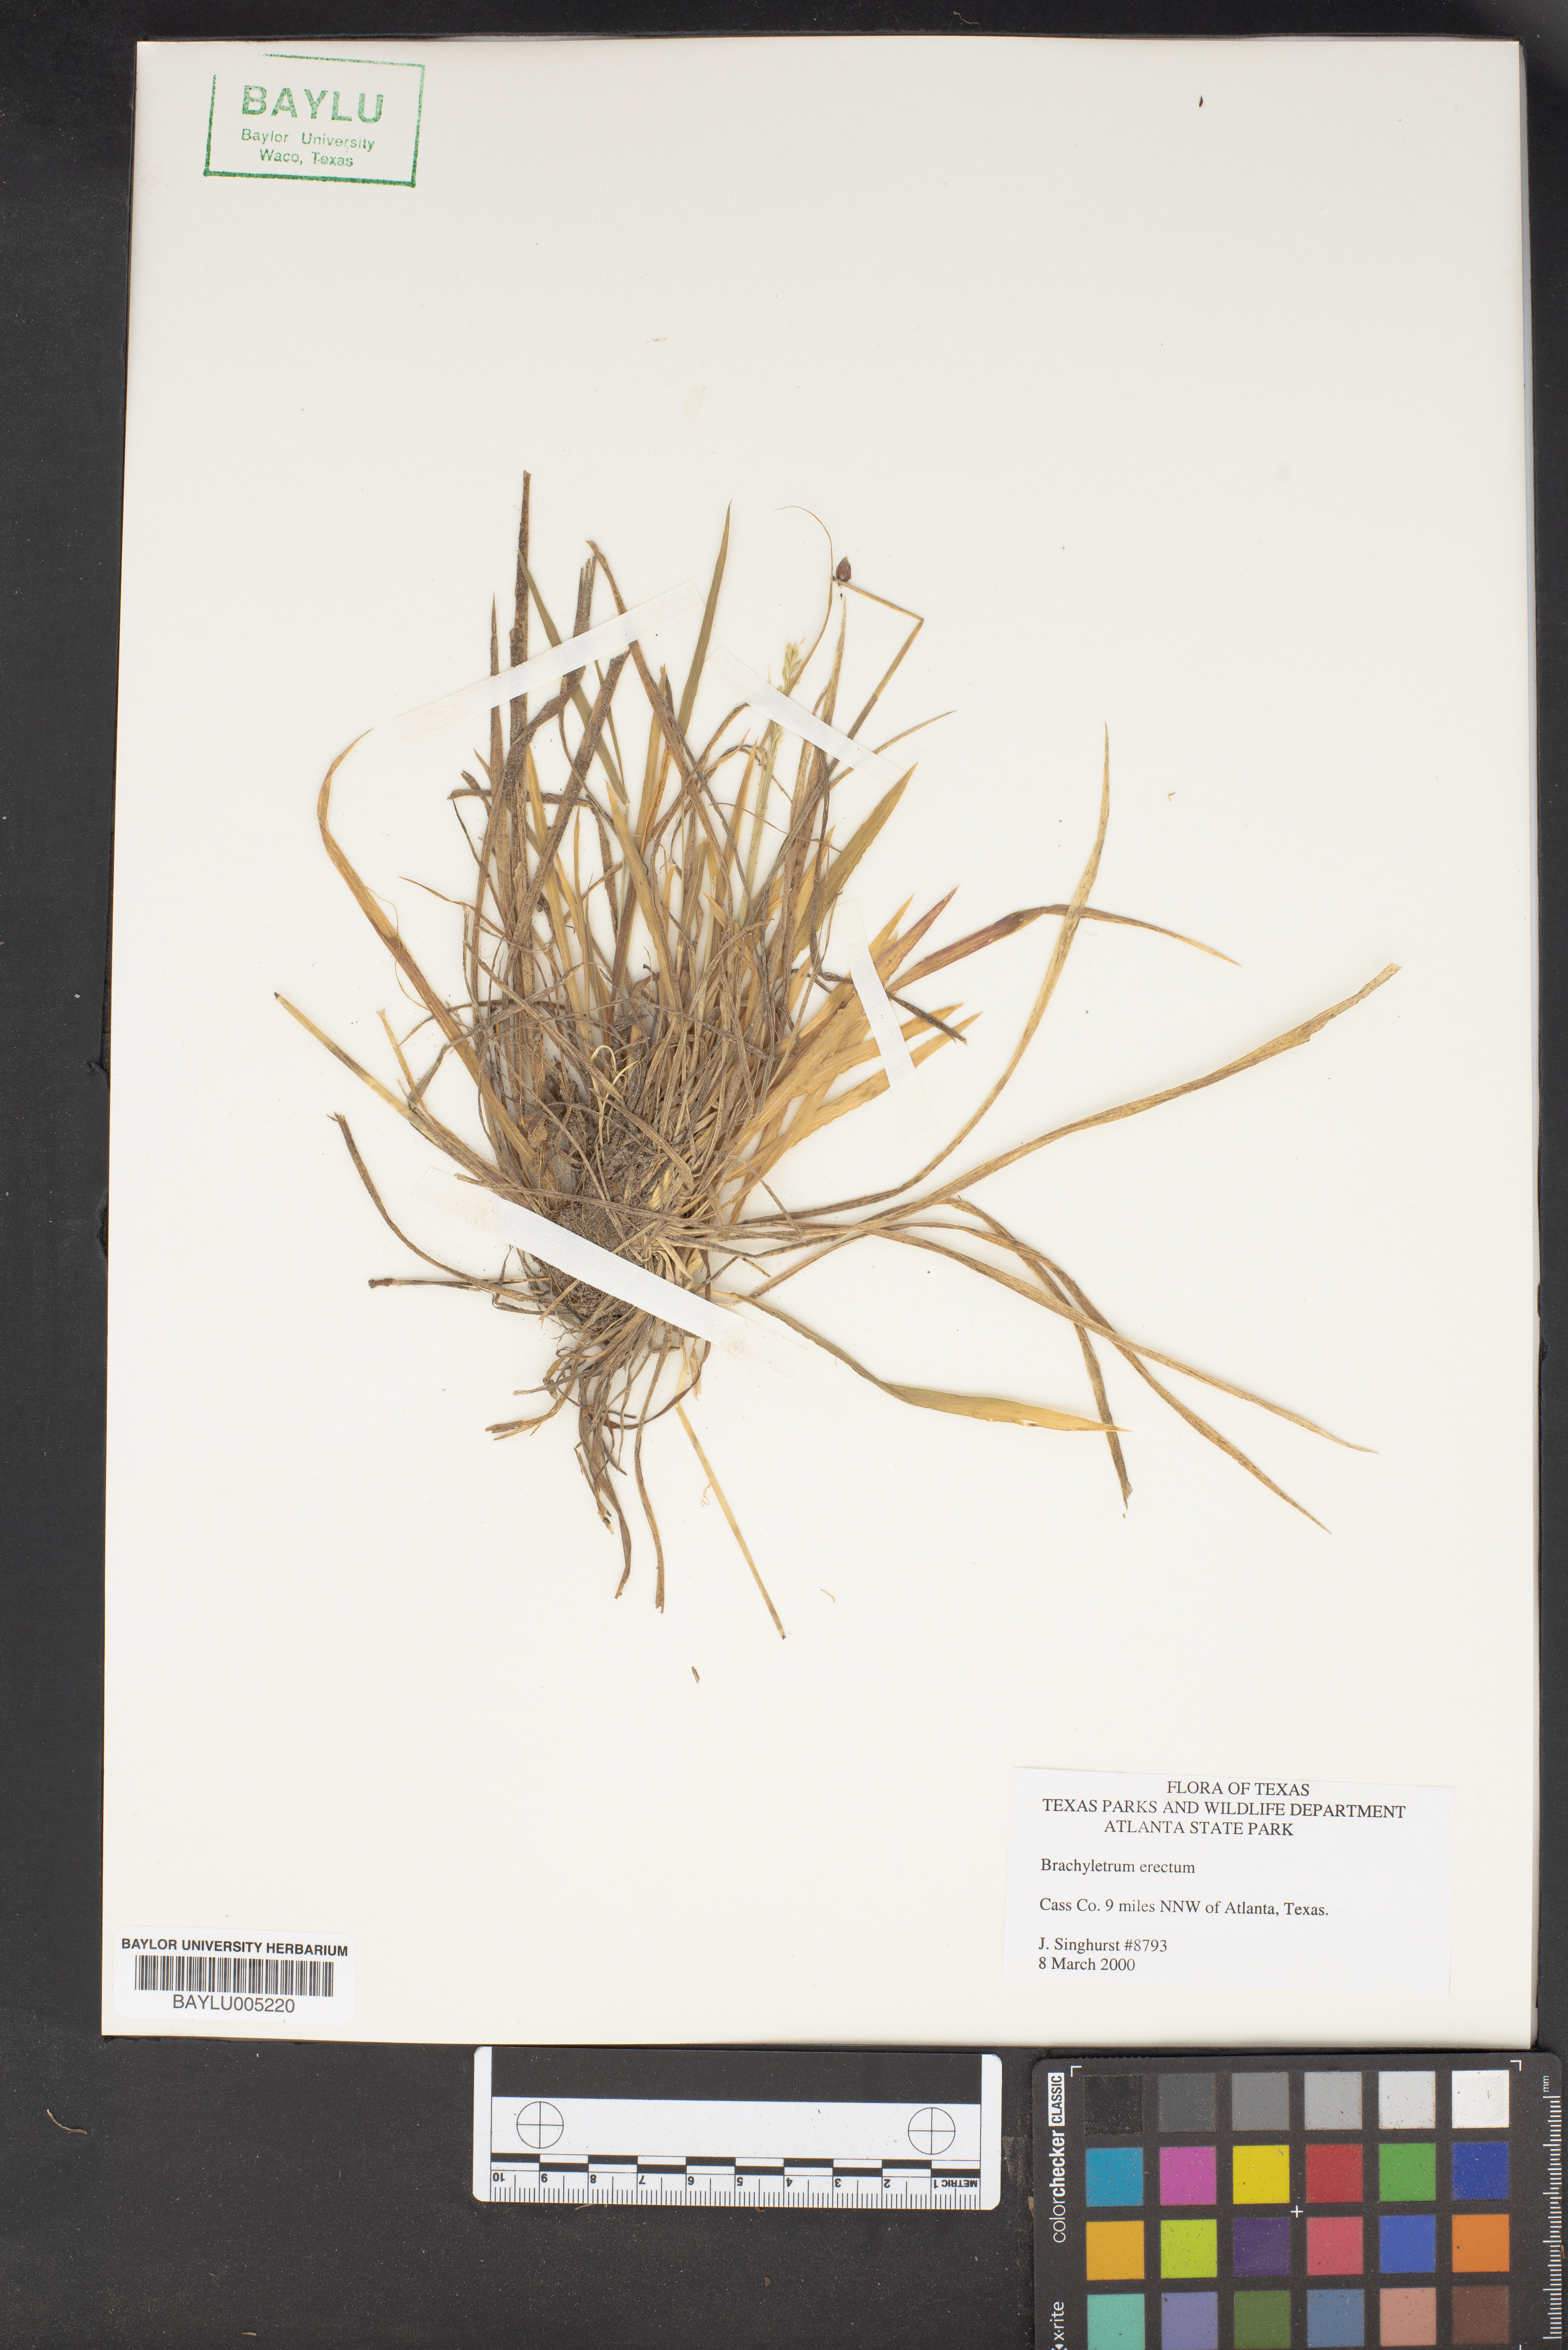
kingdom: Plantae
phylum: Tracheophyta
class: Liliopsida
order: Poales
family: Poaceae
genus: Brachyelytrum
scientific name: Brachyelytrum erectum
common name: Bearded shorthusk
